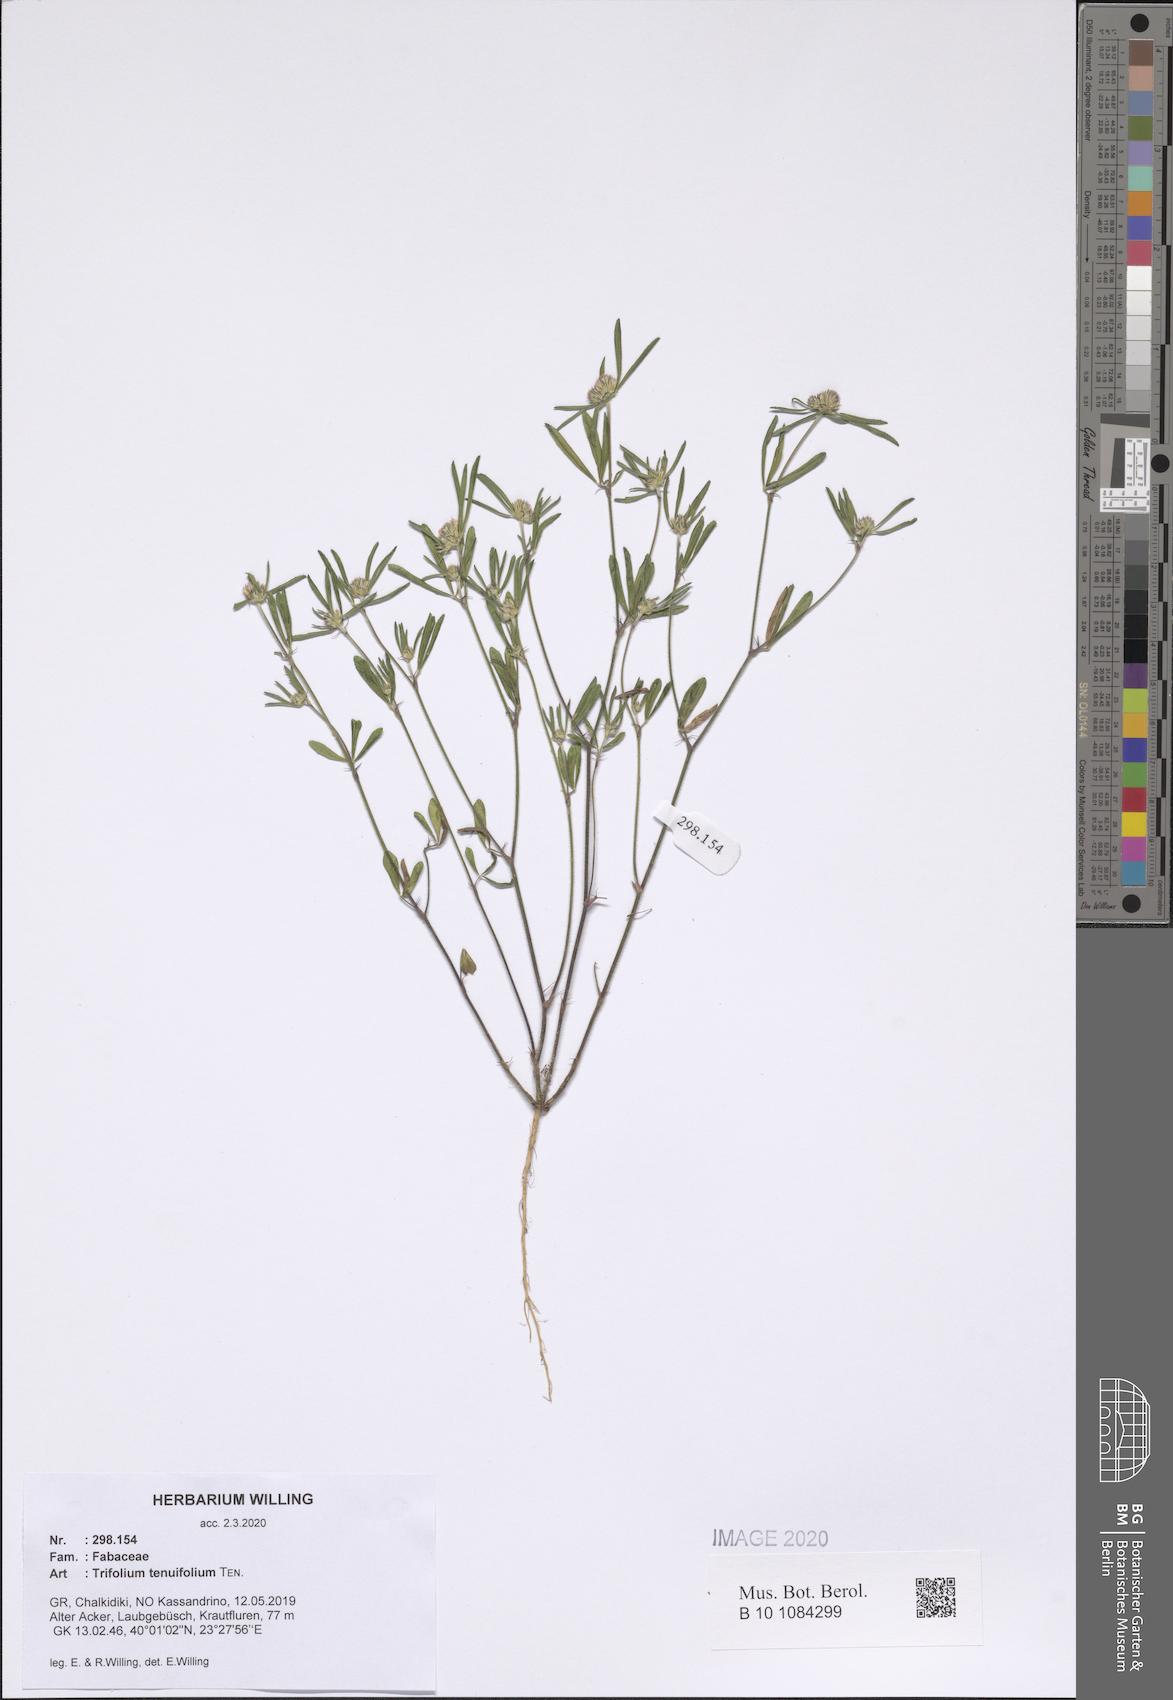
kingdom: Plantae
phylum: Tracheophyta
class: Magnoliopsida
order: Fabales
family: Fabaceae
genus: Trifolium
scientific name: Trifolium tenuifolium
